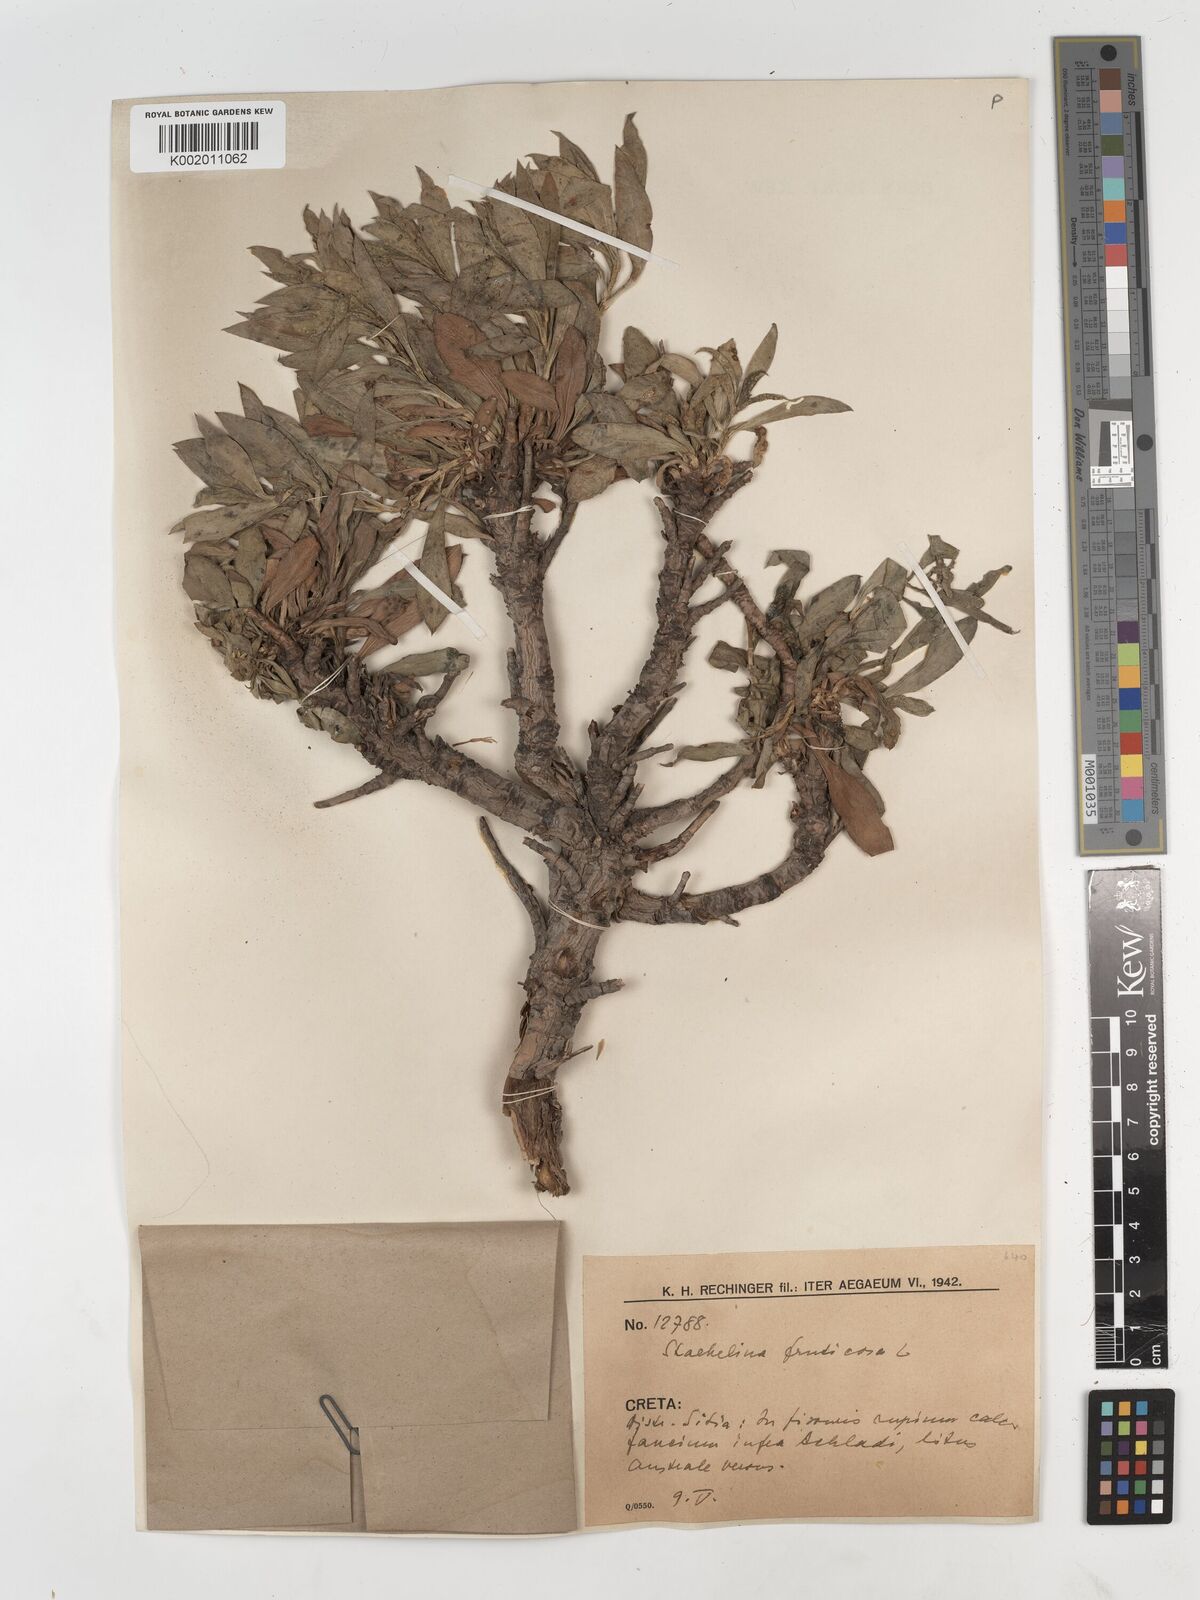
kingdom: Plantae
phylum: Tracheophyta
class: Magnoliopsida
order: Asterales
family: Asteraceae
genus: Hirtellina
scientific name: Hirtellina fruticosa
